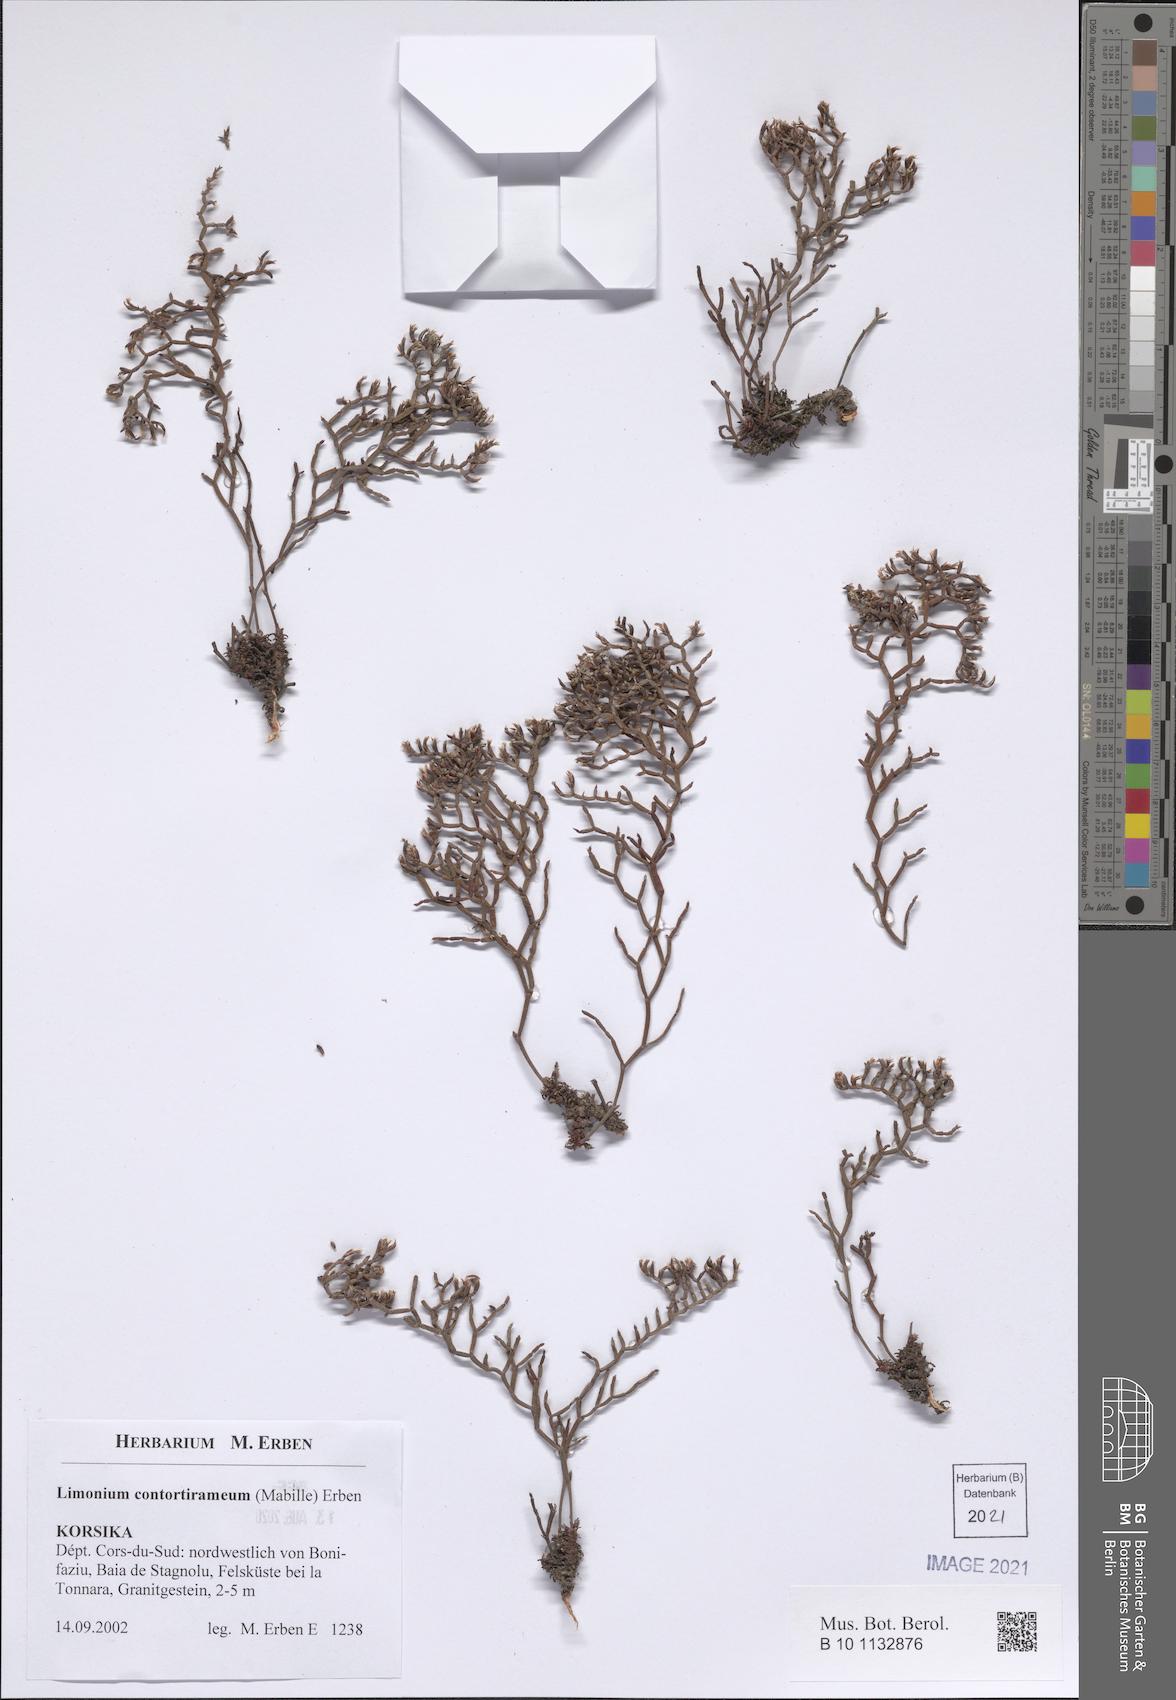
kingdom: Plantae
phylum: Tracheophyta
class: Magnoliopsida
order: Caryophyllales
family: Plumbaginaceae
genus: Limonium
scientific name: Limonium contortirameum
